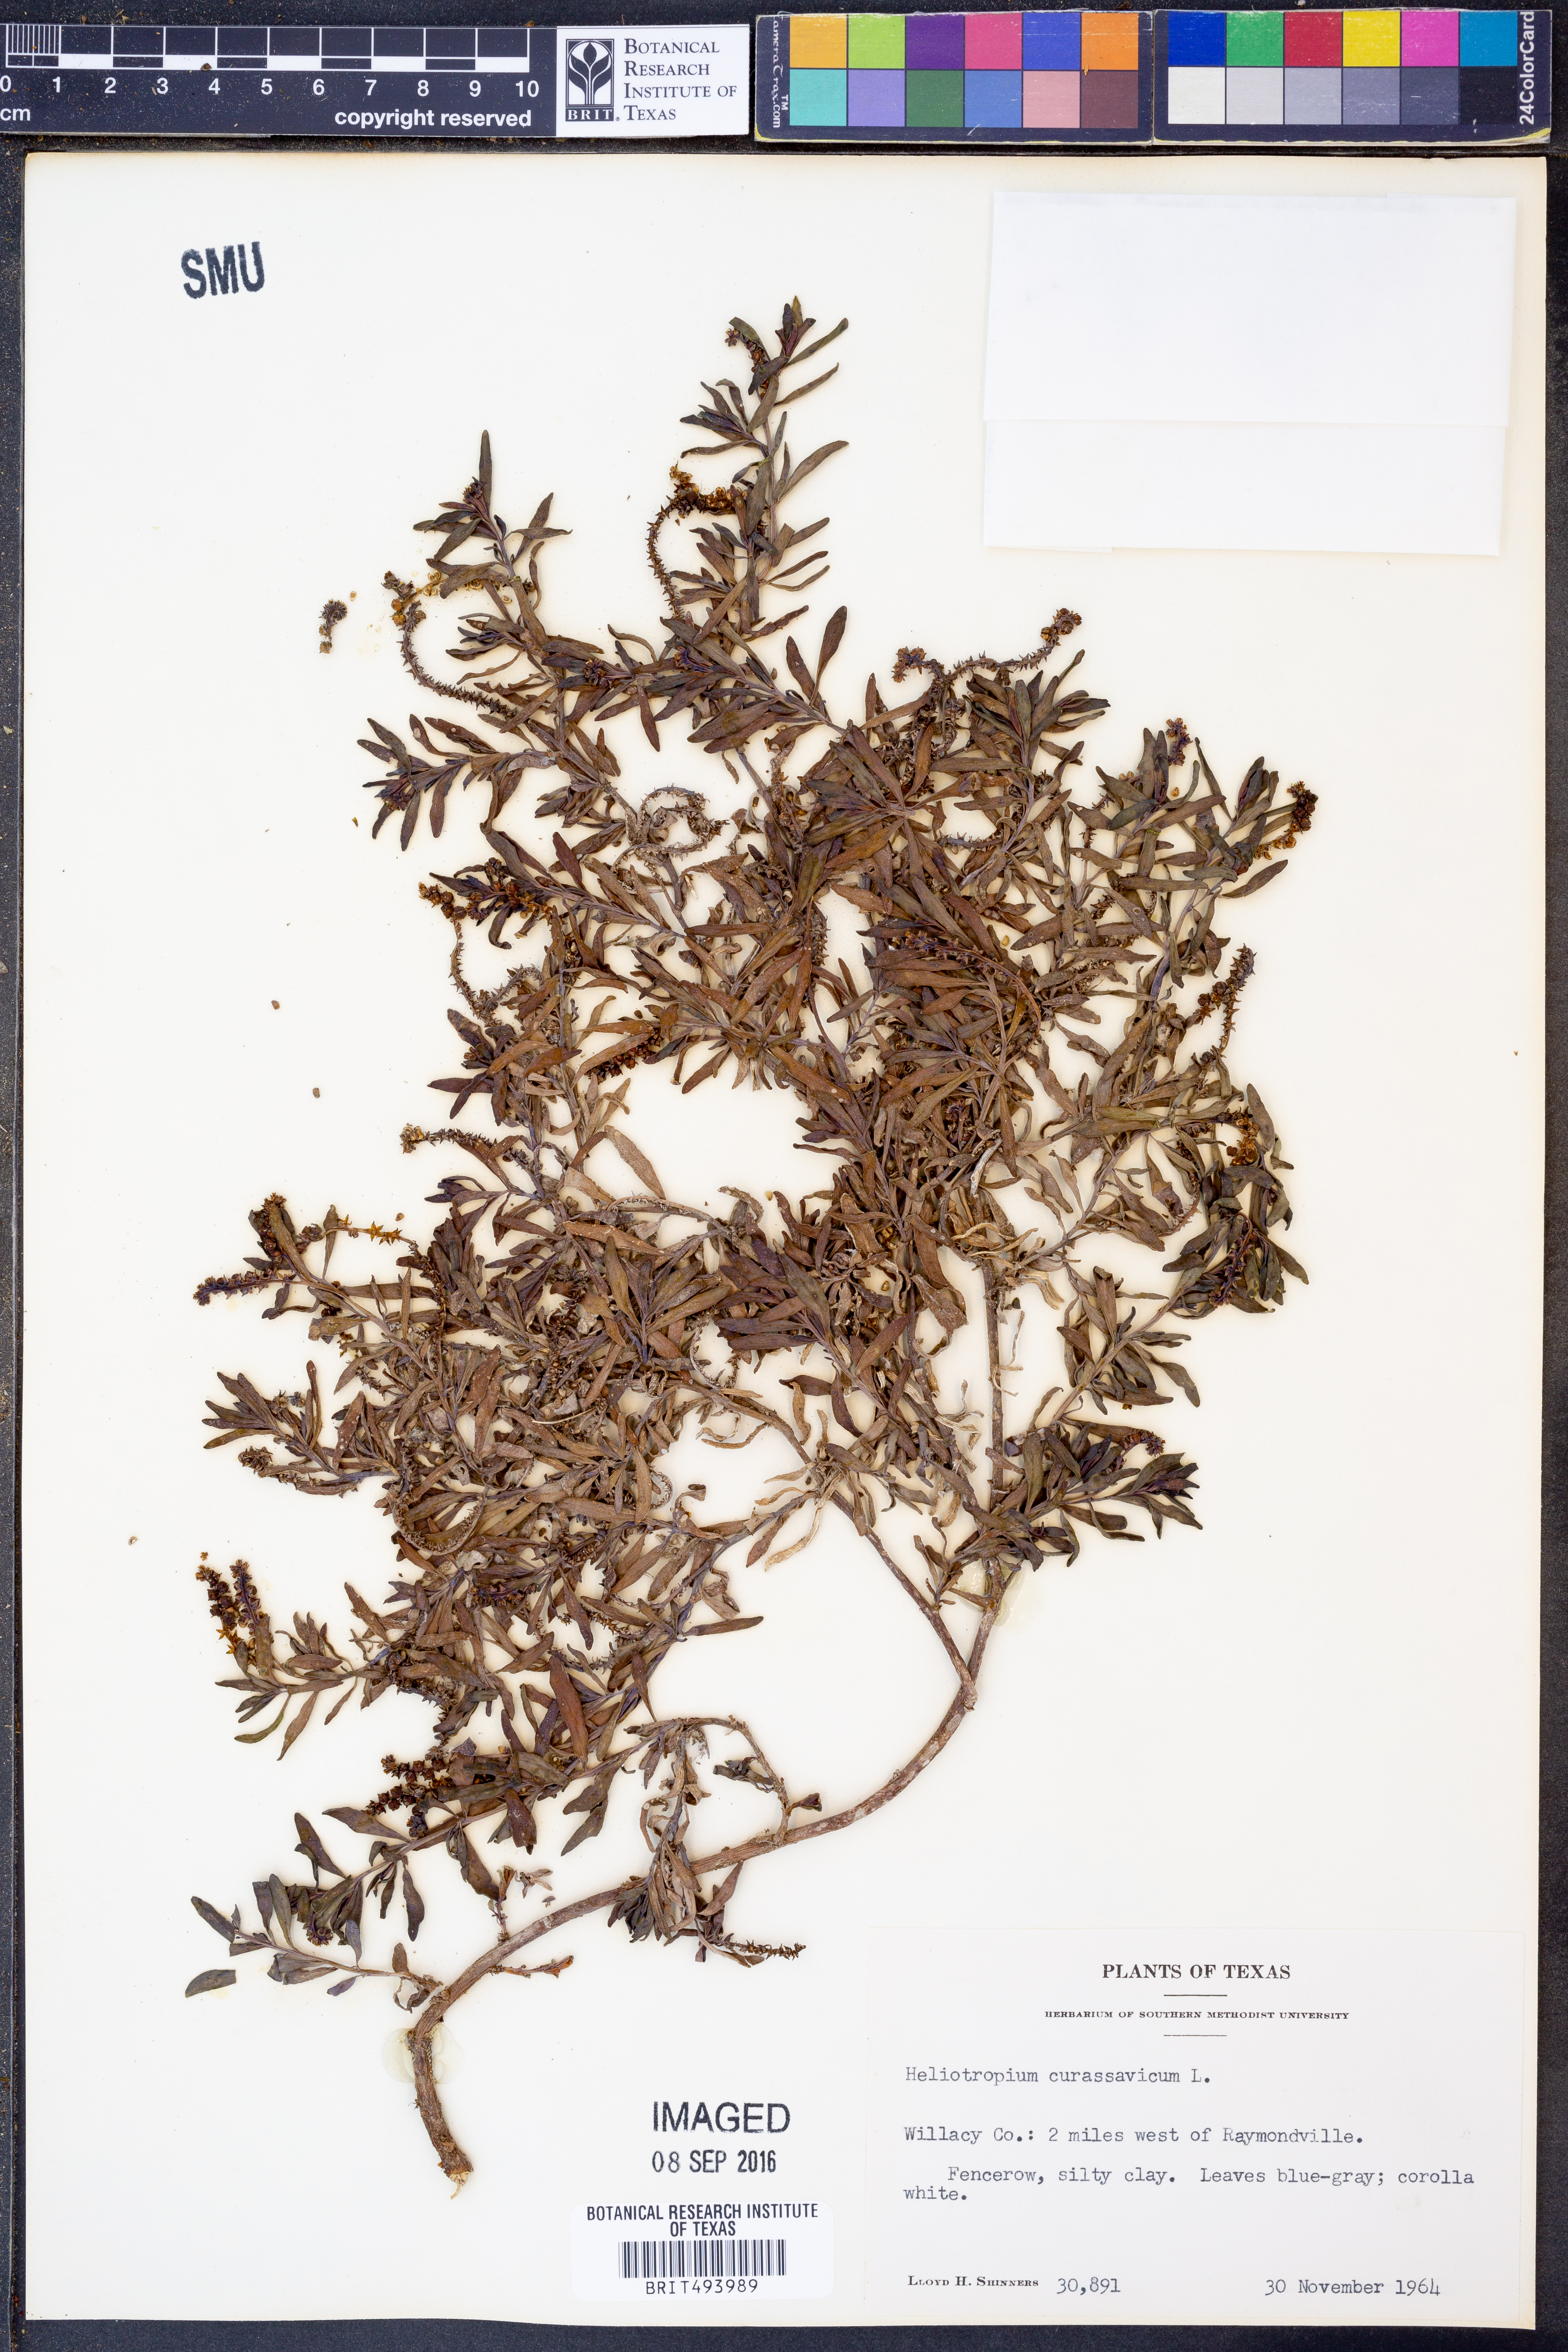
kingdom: Plantae
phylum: Tracheophyta
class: Magnoliopsida
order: Boraginales
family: Heliotropiaceae
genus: Heliotropium
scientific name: Heliotropium curassavicum
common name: Seaside heliotrope
